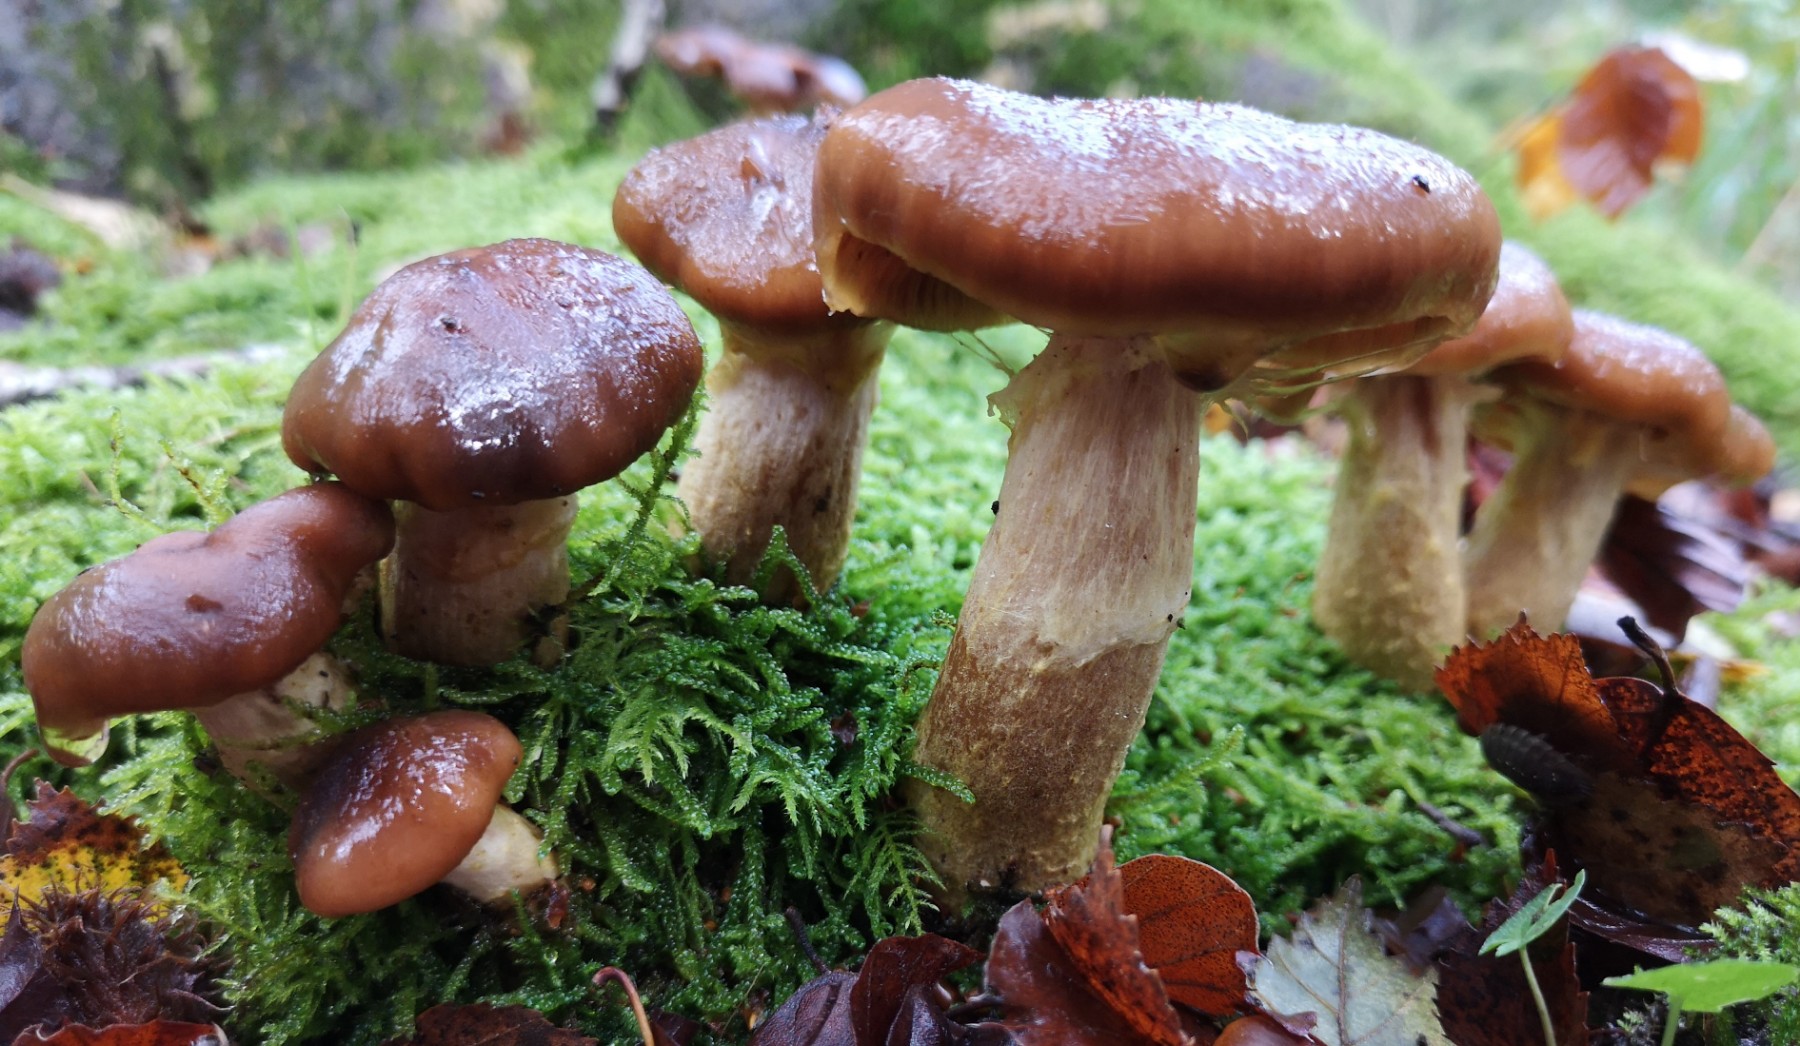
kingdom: Fungi
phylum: Basidiomycota
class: Agaricomycetes
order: Agaricales
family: Physalacriaceae
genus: Armillaria
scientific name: Armillaria lutea
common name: køllestokket honningsvamp
